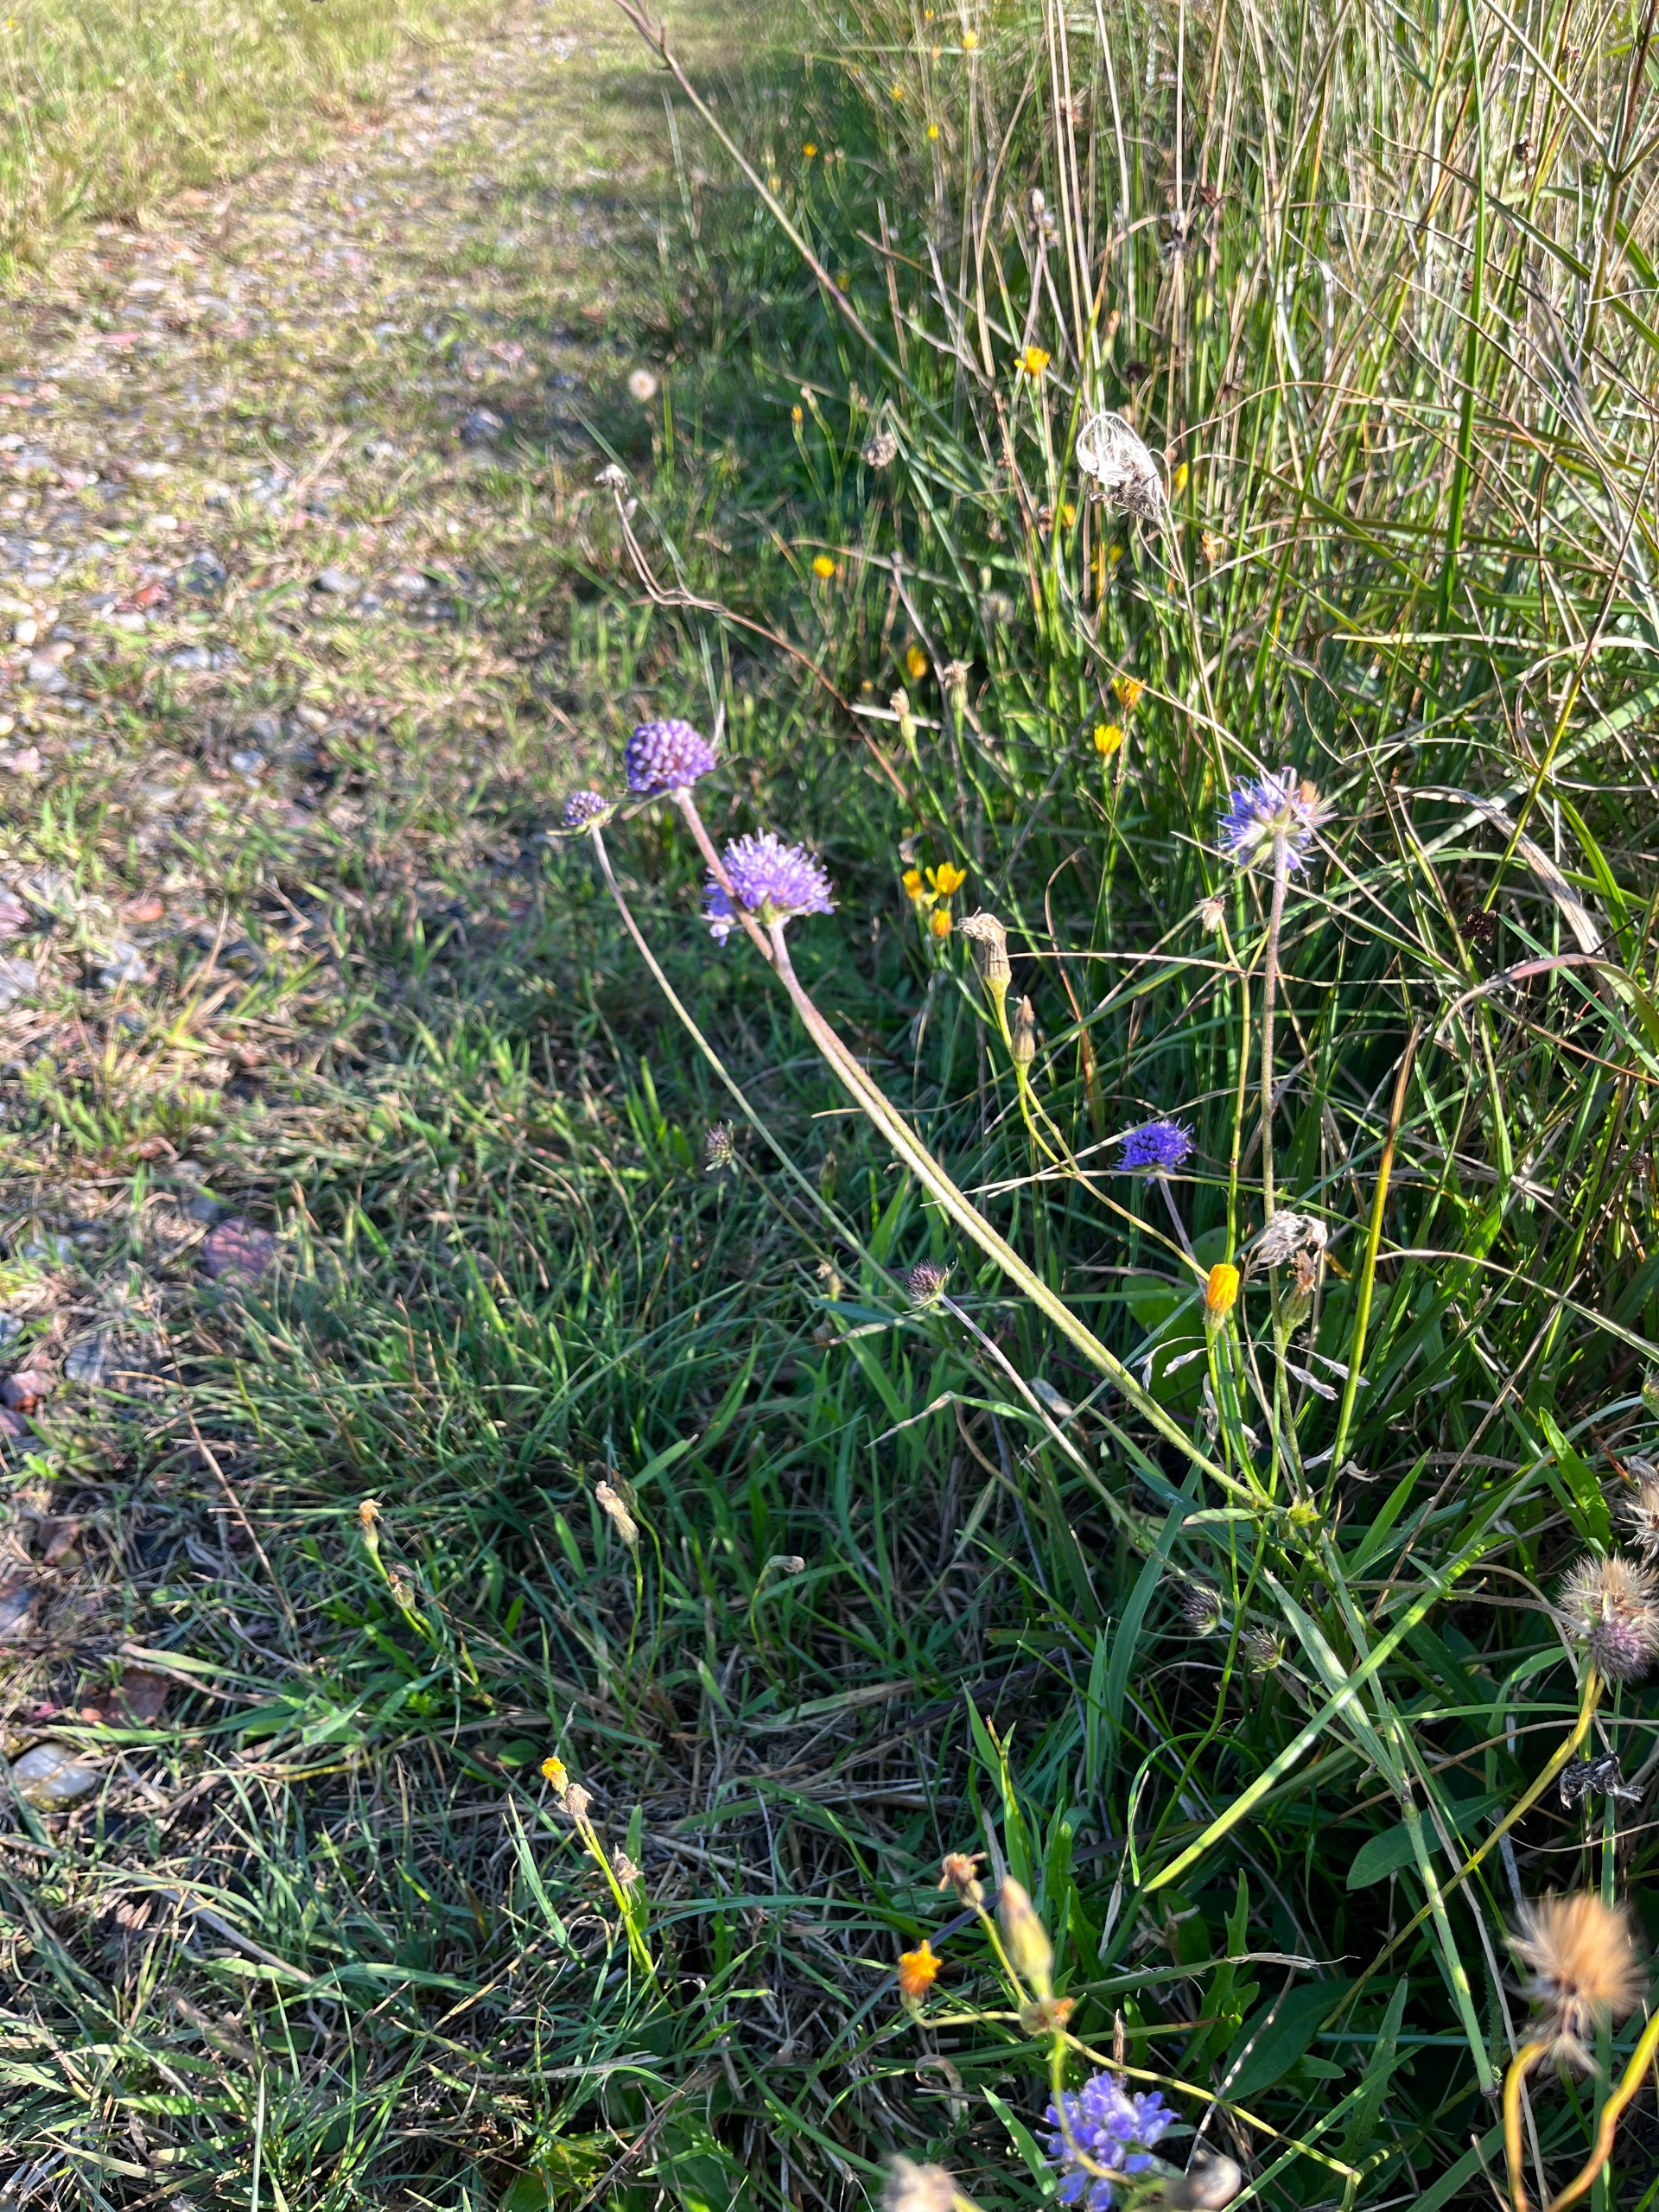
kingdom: Plantae
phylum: Tracheophyta
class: Magnoliopsida
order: Dipsacales
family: Caprifoliaceae
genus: Succisa
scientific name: Succisa pratensis
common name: Djævelsbid
